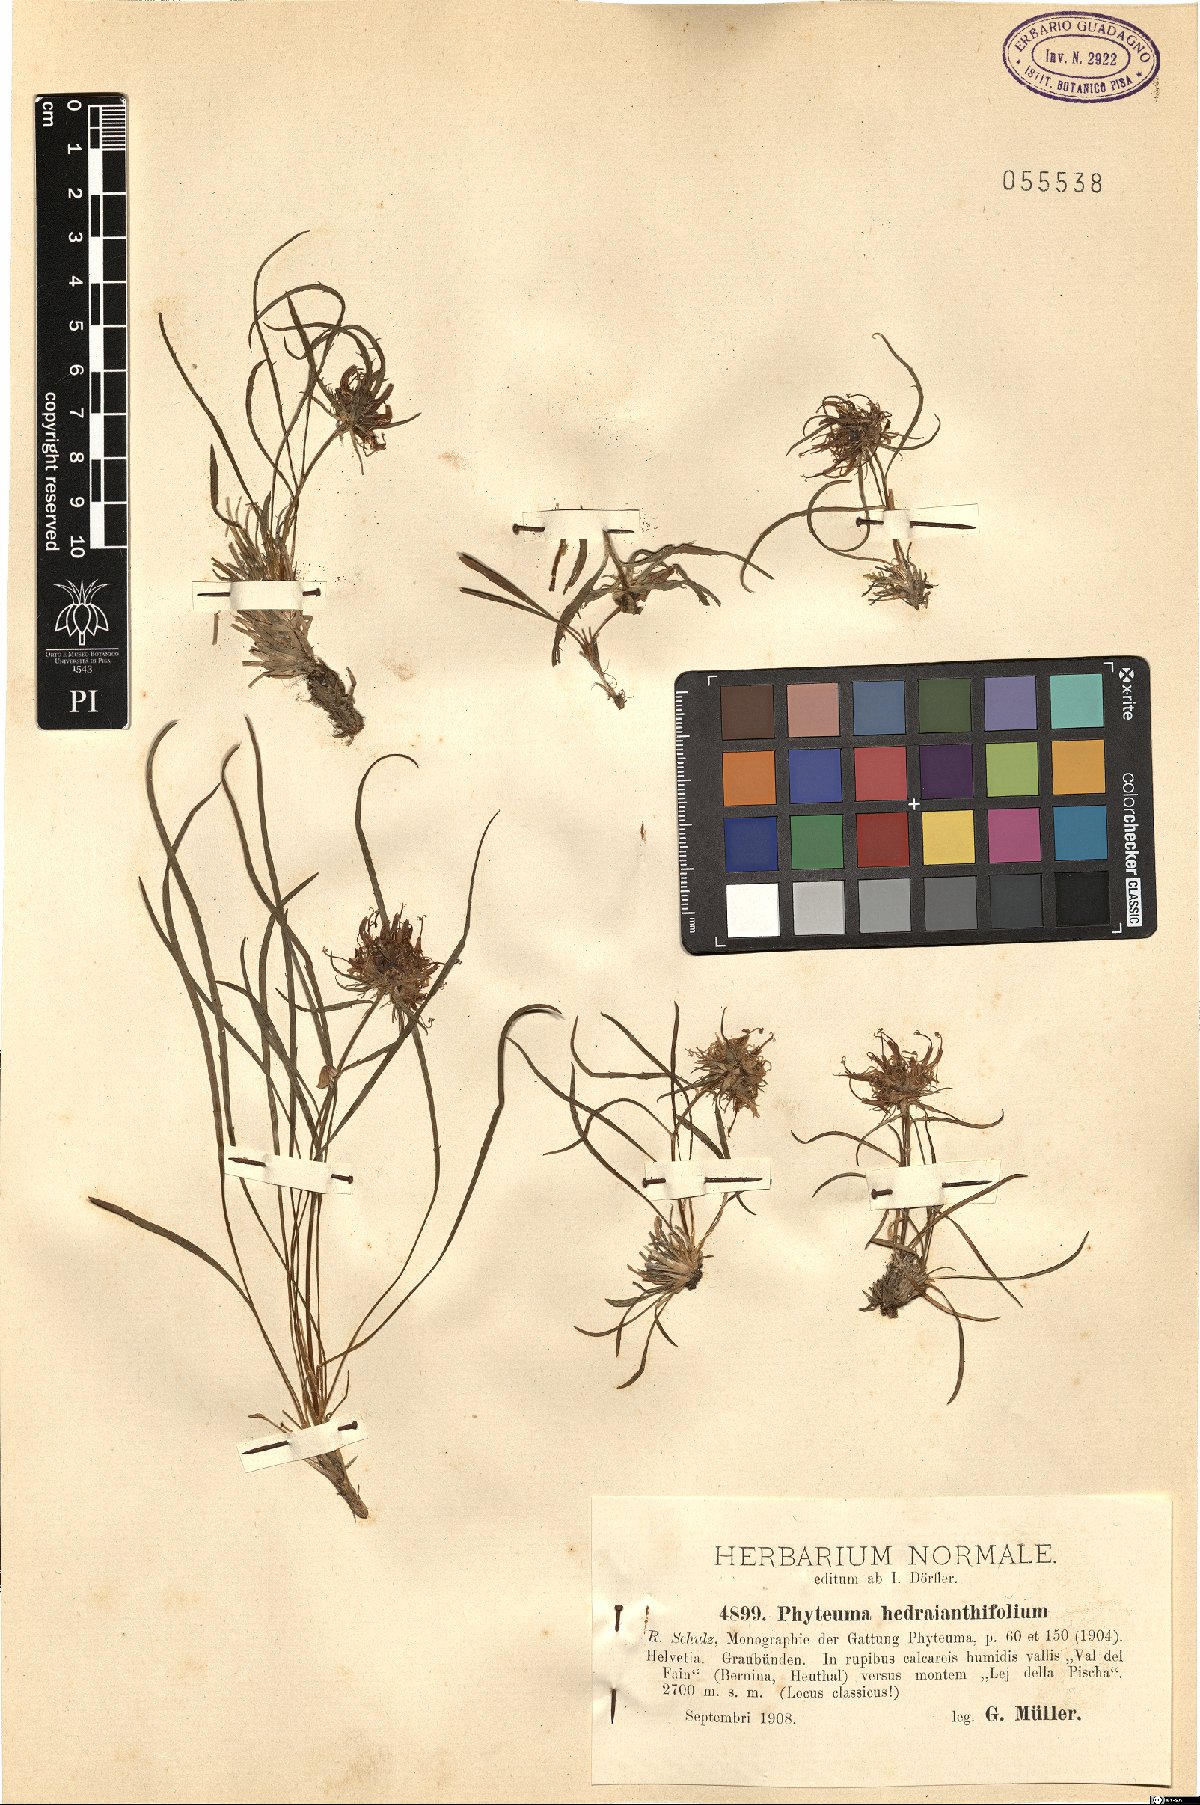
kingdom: Plantae
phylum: Tracheophyta
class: Magnoliopsida
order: Asterales
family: Campanulaceae
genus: Phyteuma
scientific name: Phyteuma hedraianthifolium
